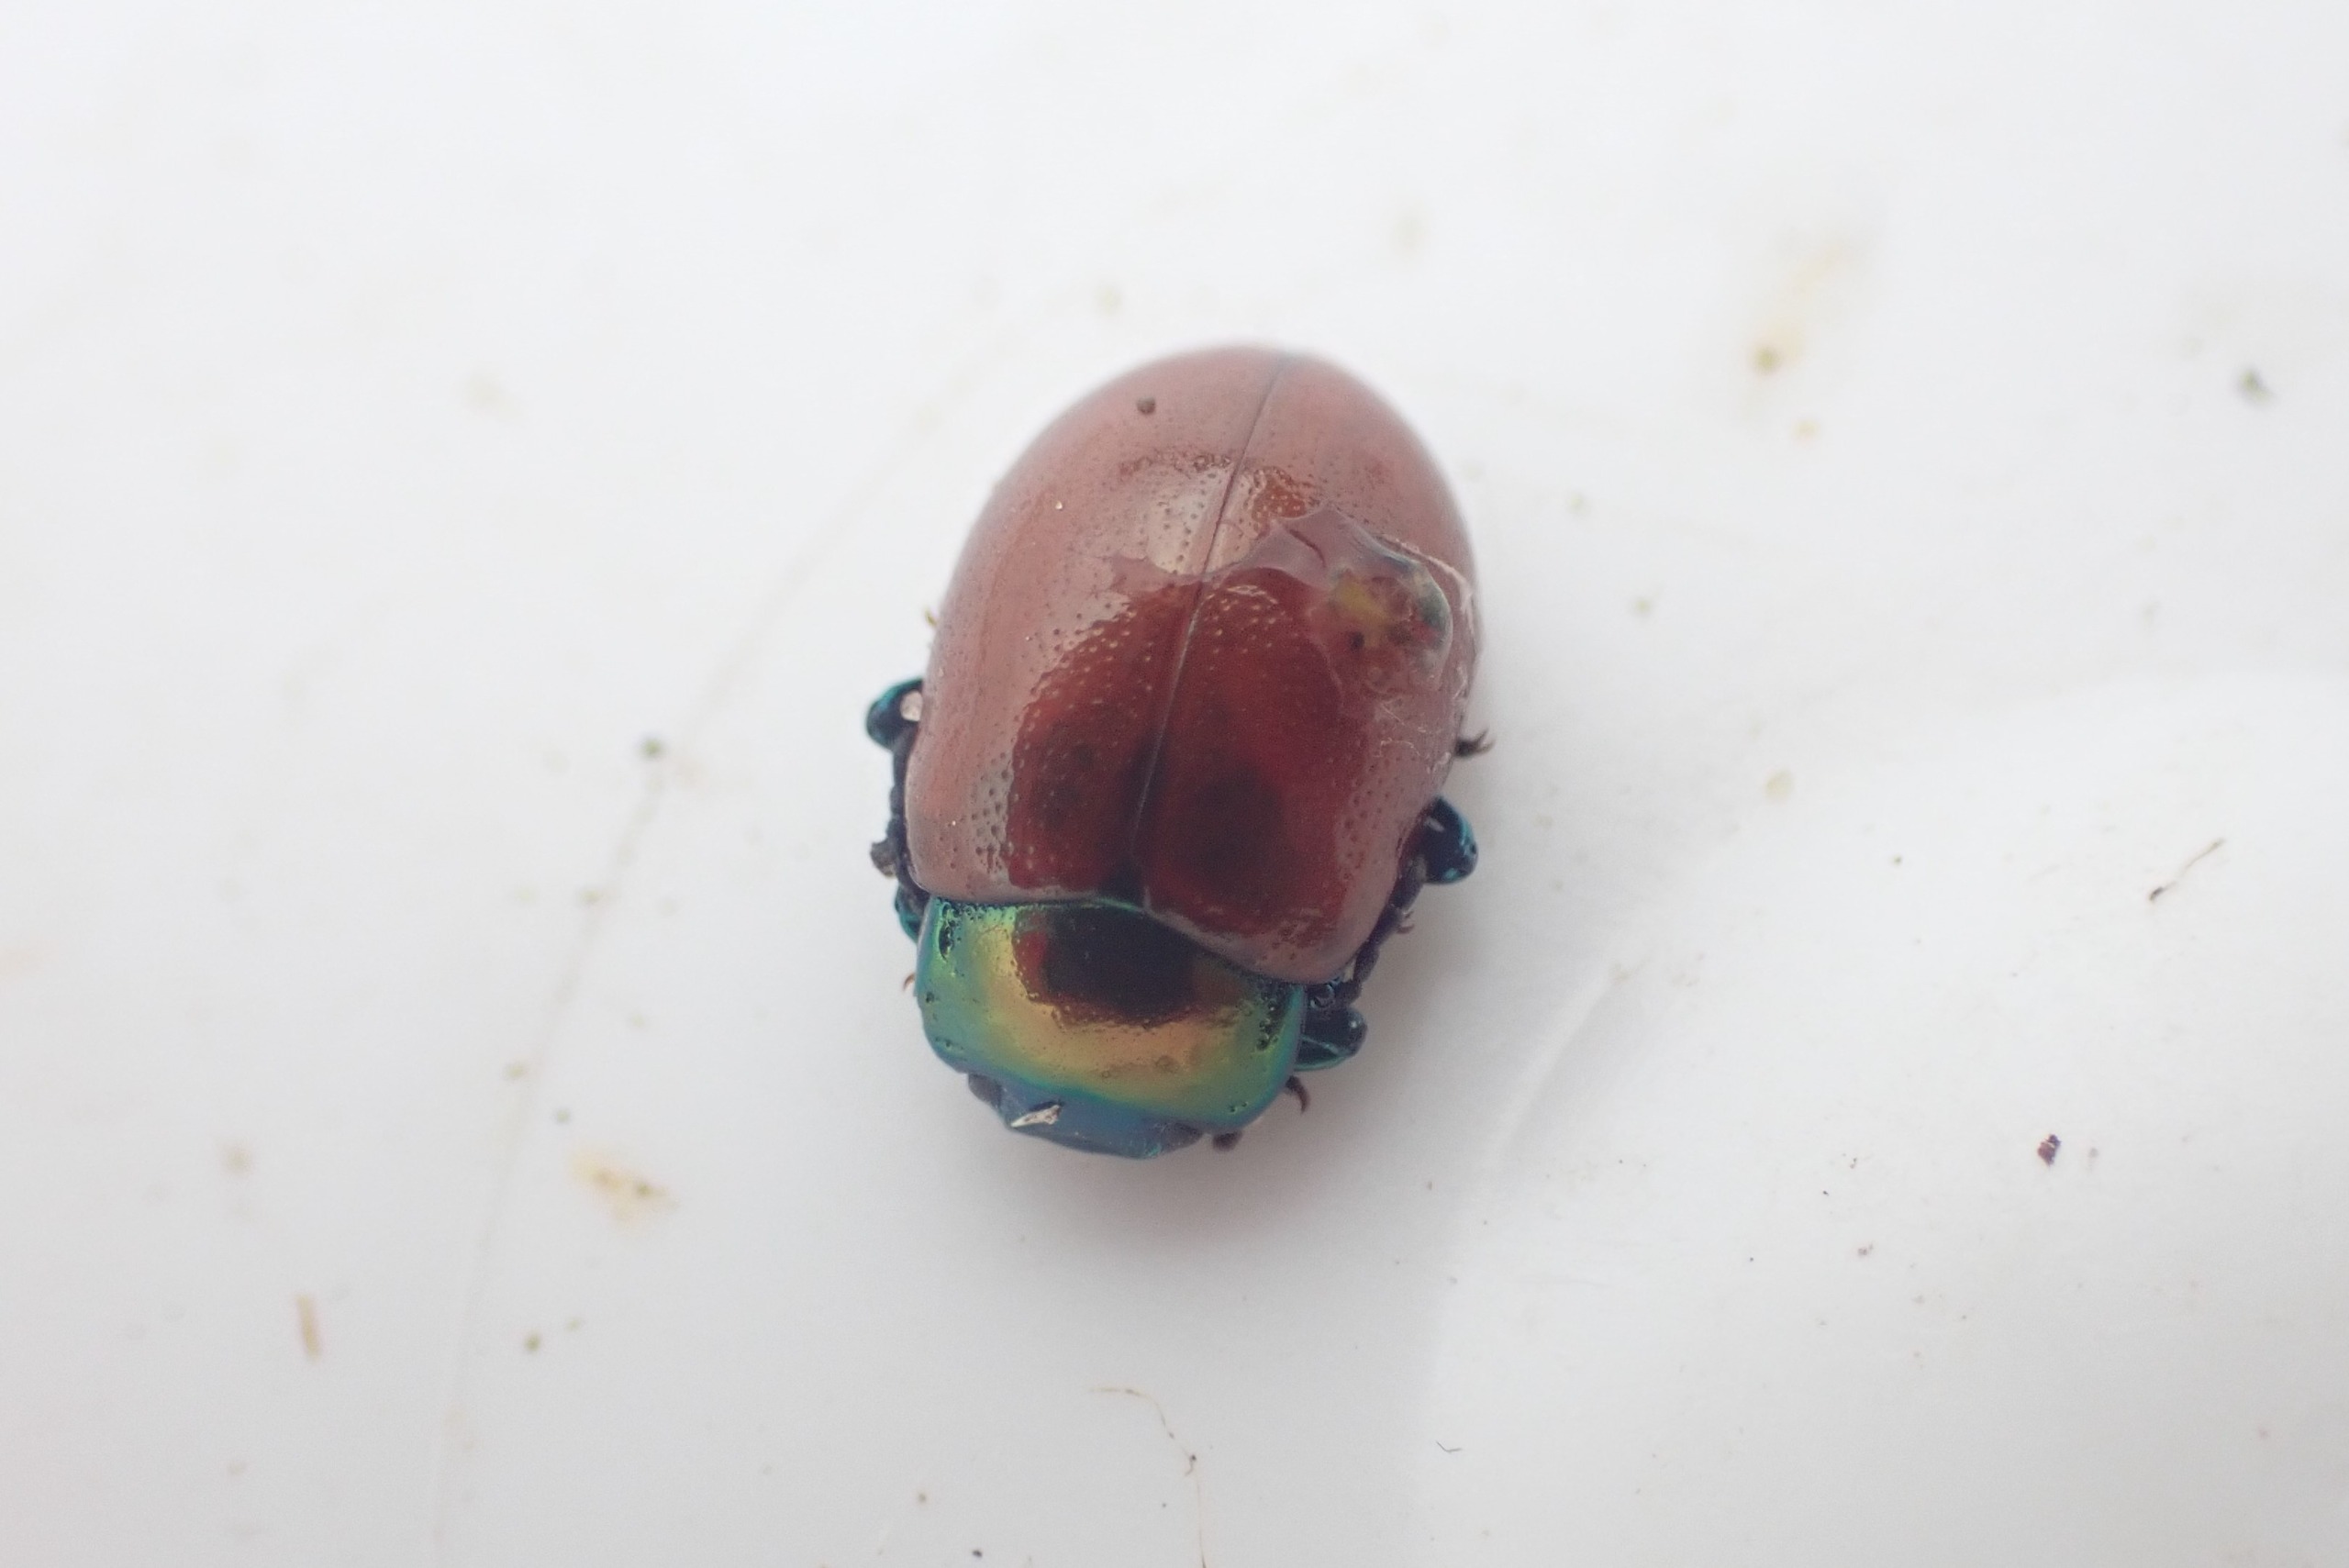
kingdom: Animalia
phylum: Arthropoda
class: Insecta
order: Coleoptera
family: Chrysomelidae
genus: Chrysomela
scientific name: Chrysomela polita
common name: Forskelligfarvet guldbille
